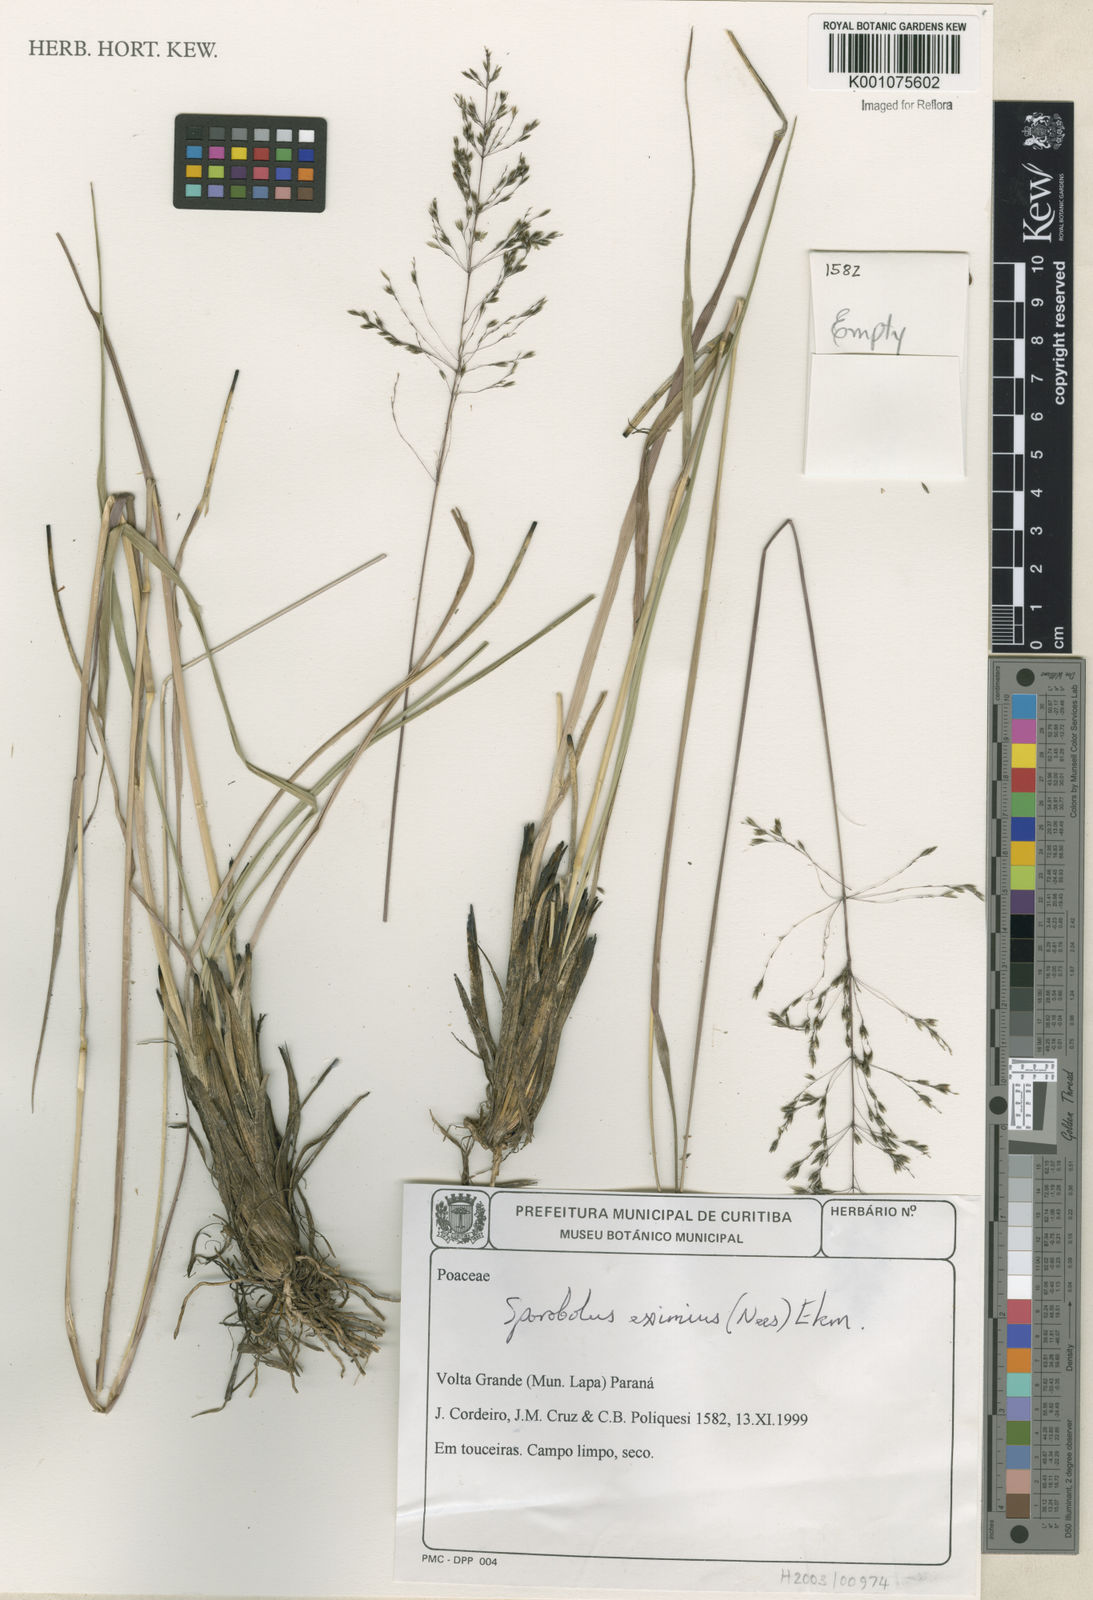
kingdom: Plantae
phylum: Tracheophyta
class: Liliopsida
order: Poales
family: Poaceae
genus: Sporobolus
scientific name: Sporobolus eximius
